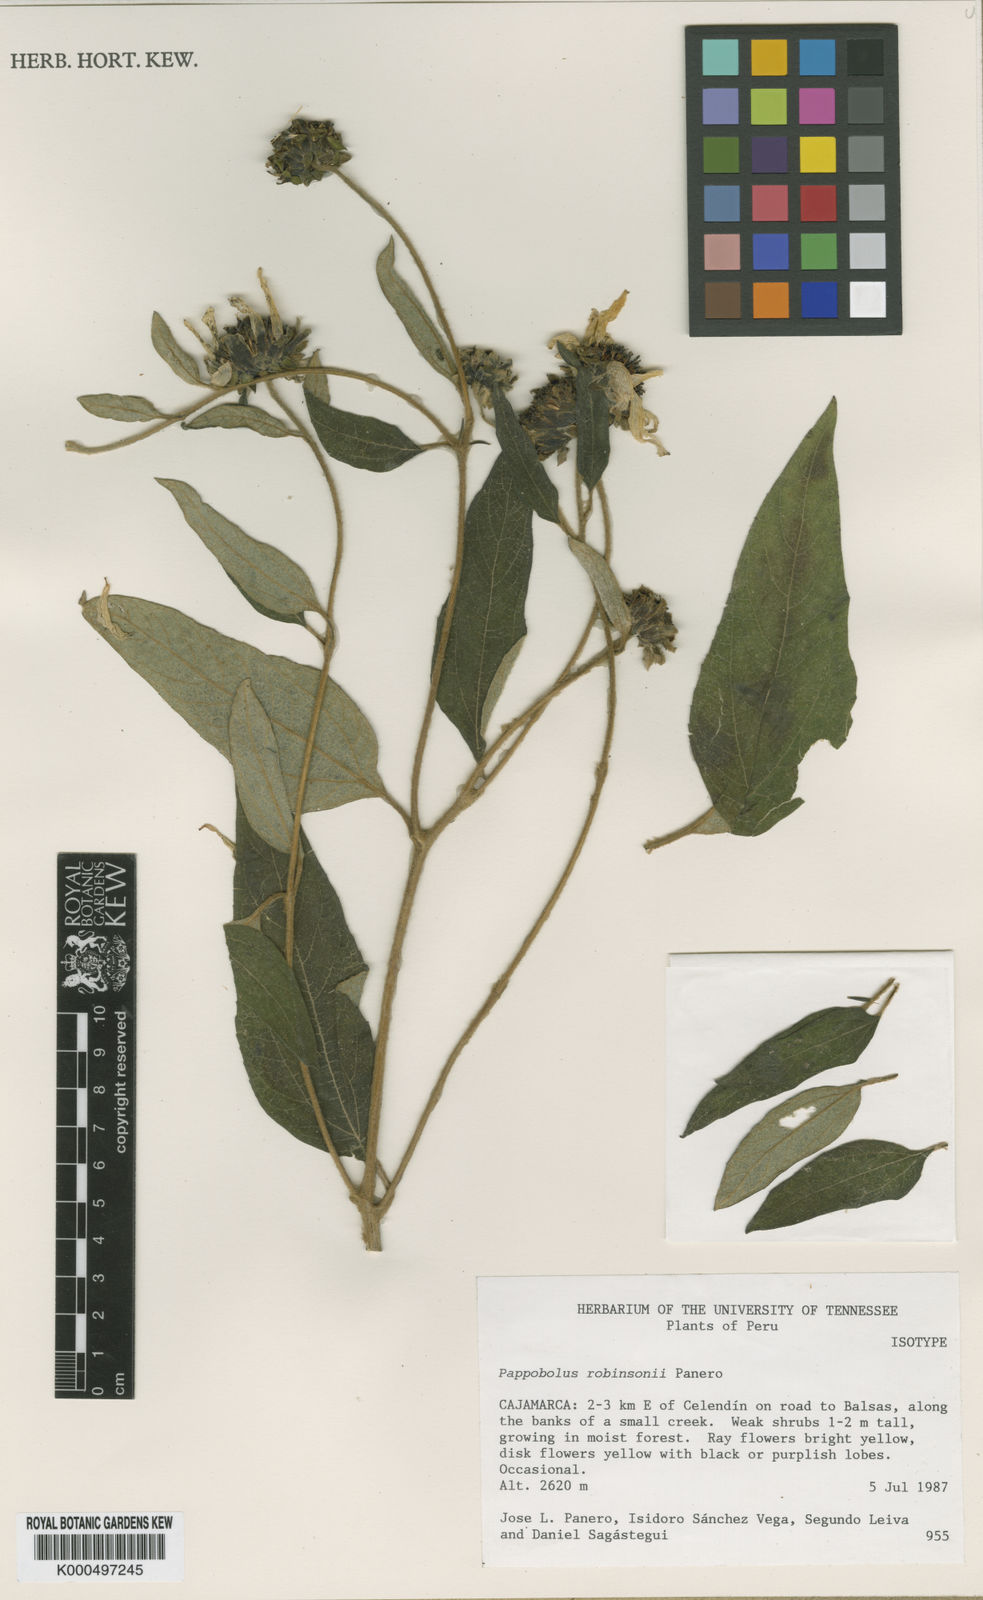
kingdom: Plantae
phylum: Tracheophyta
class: Magnoliopsida
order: Asterales
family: Asteraceae
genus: Pappobolus
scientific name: Pappobolus robinsonii
